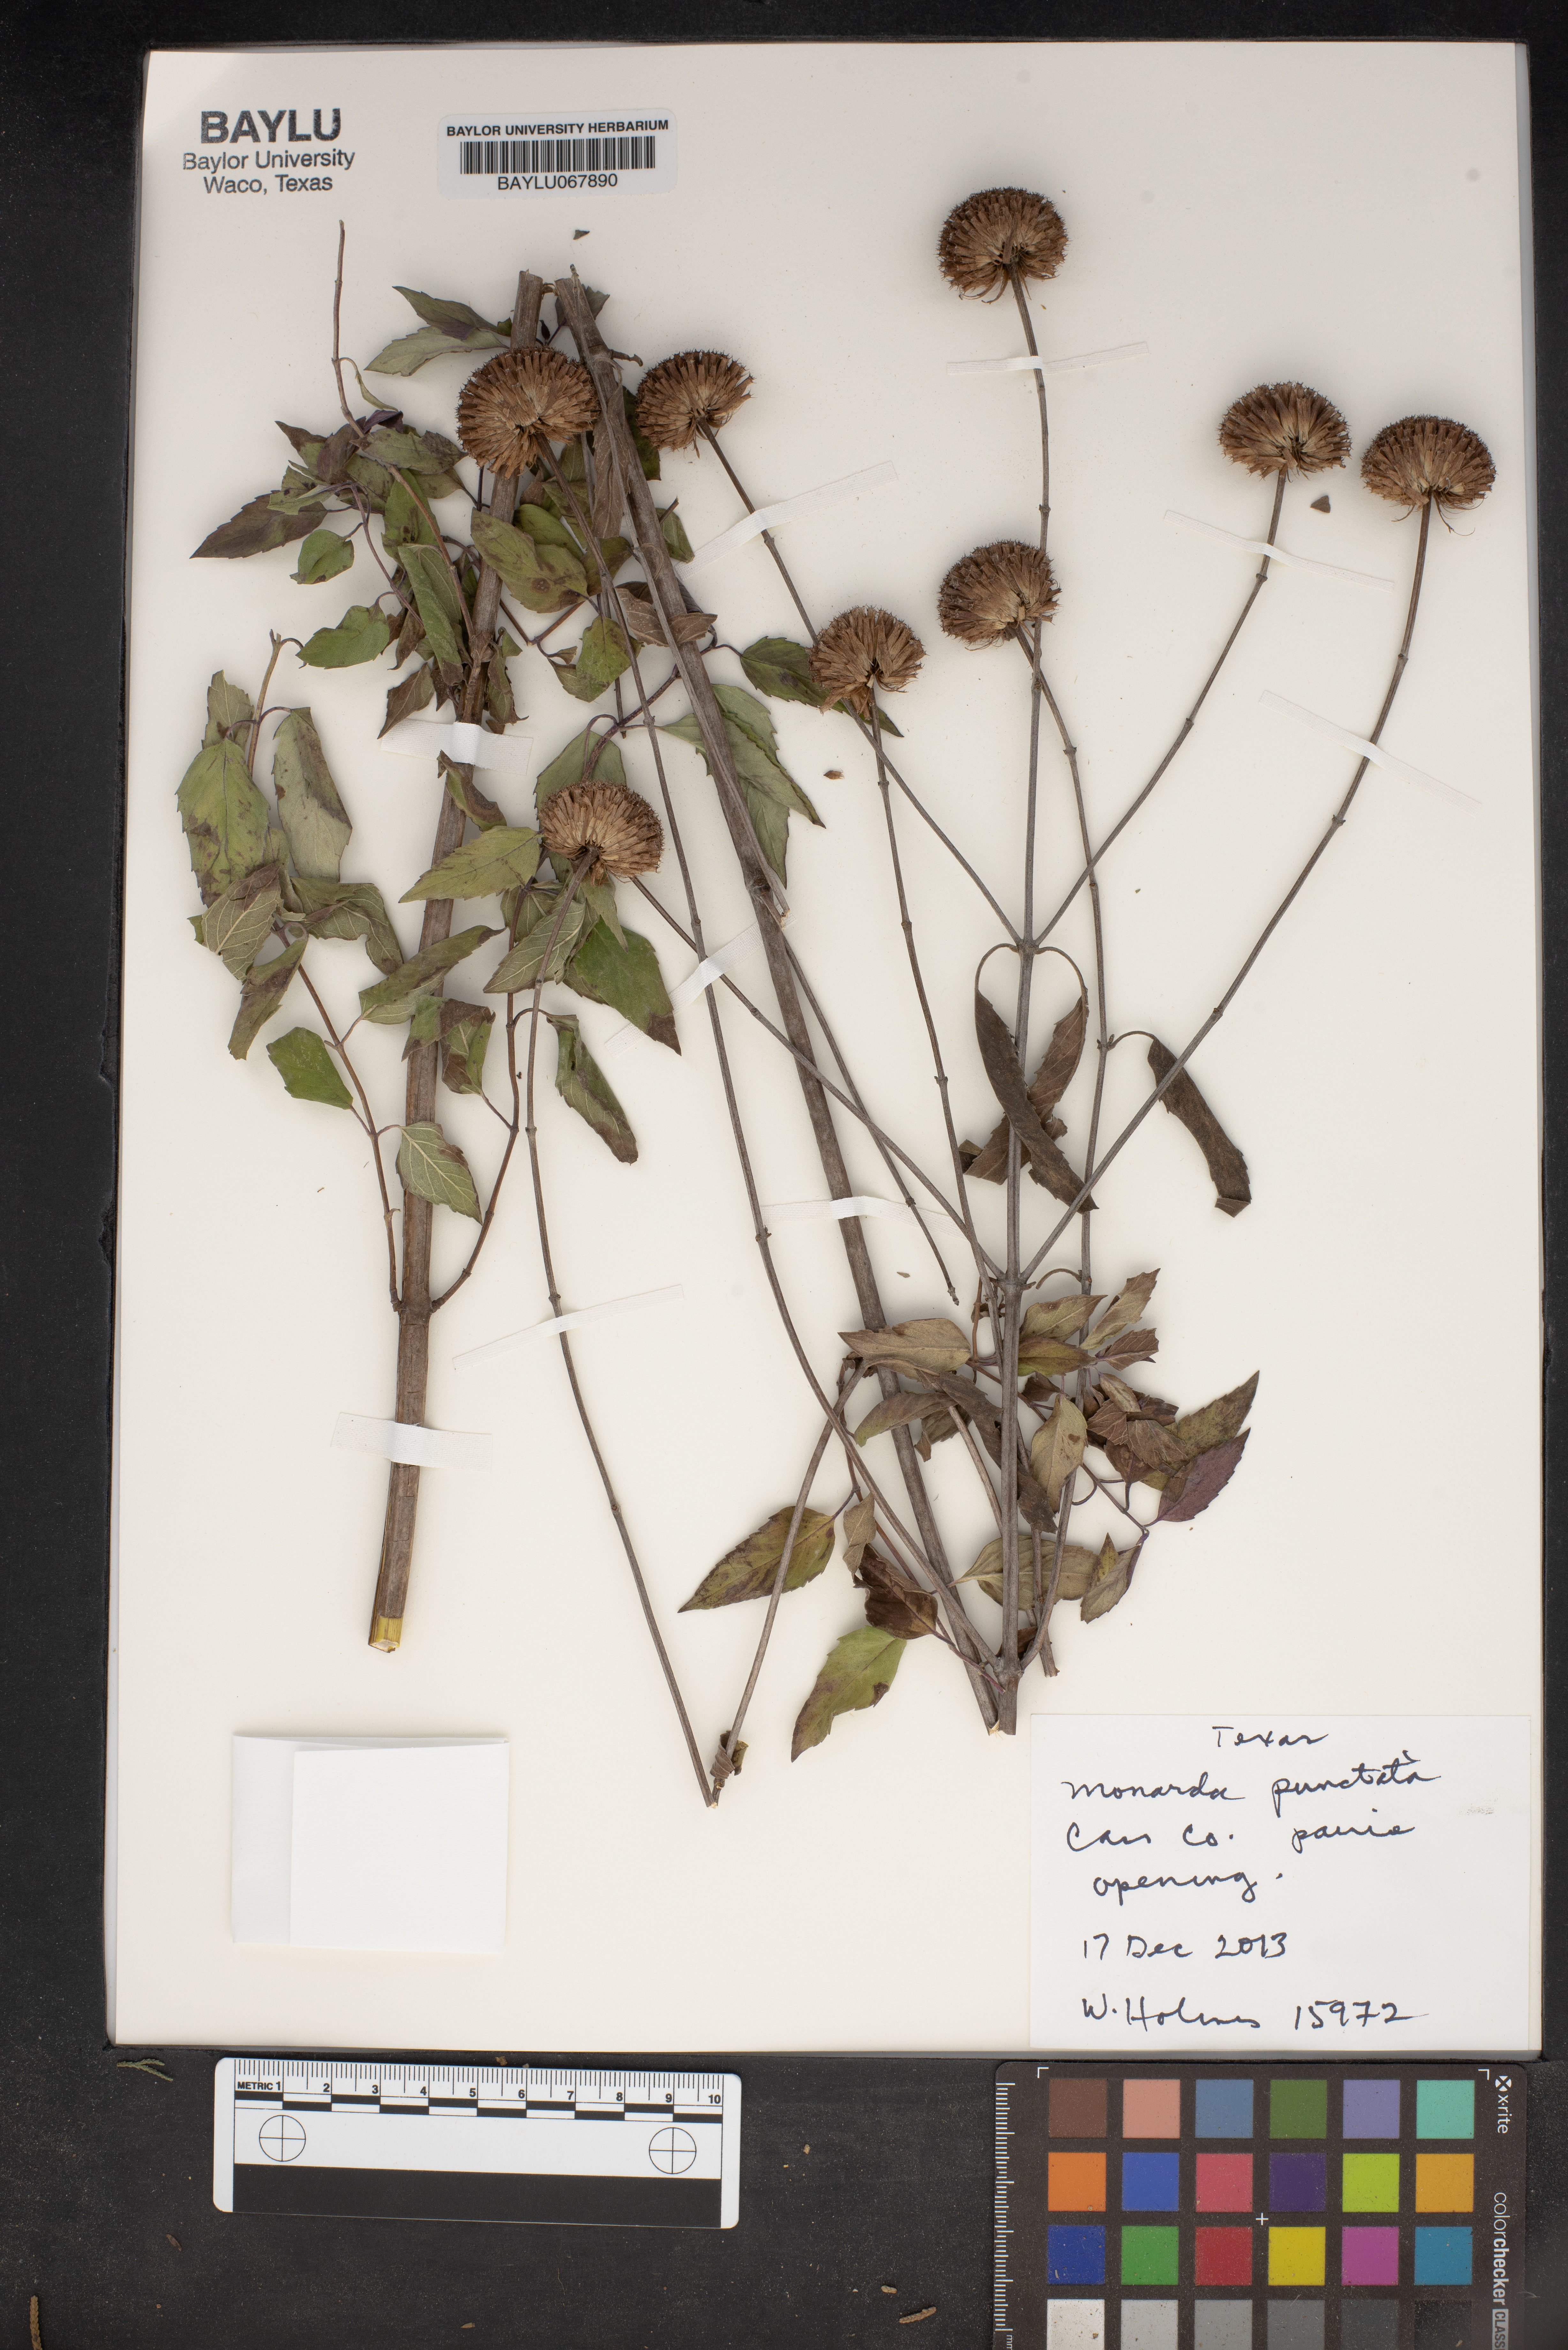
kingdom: Plantae
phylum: Tracheophyta
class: Magnoliopsida
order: Lamiales
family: Lamiaceae
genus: Monarda
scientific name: Monarda punctata
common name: Dotted monarda
